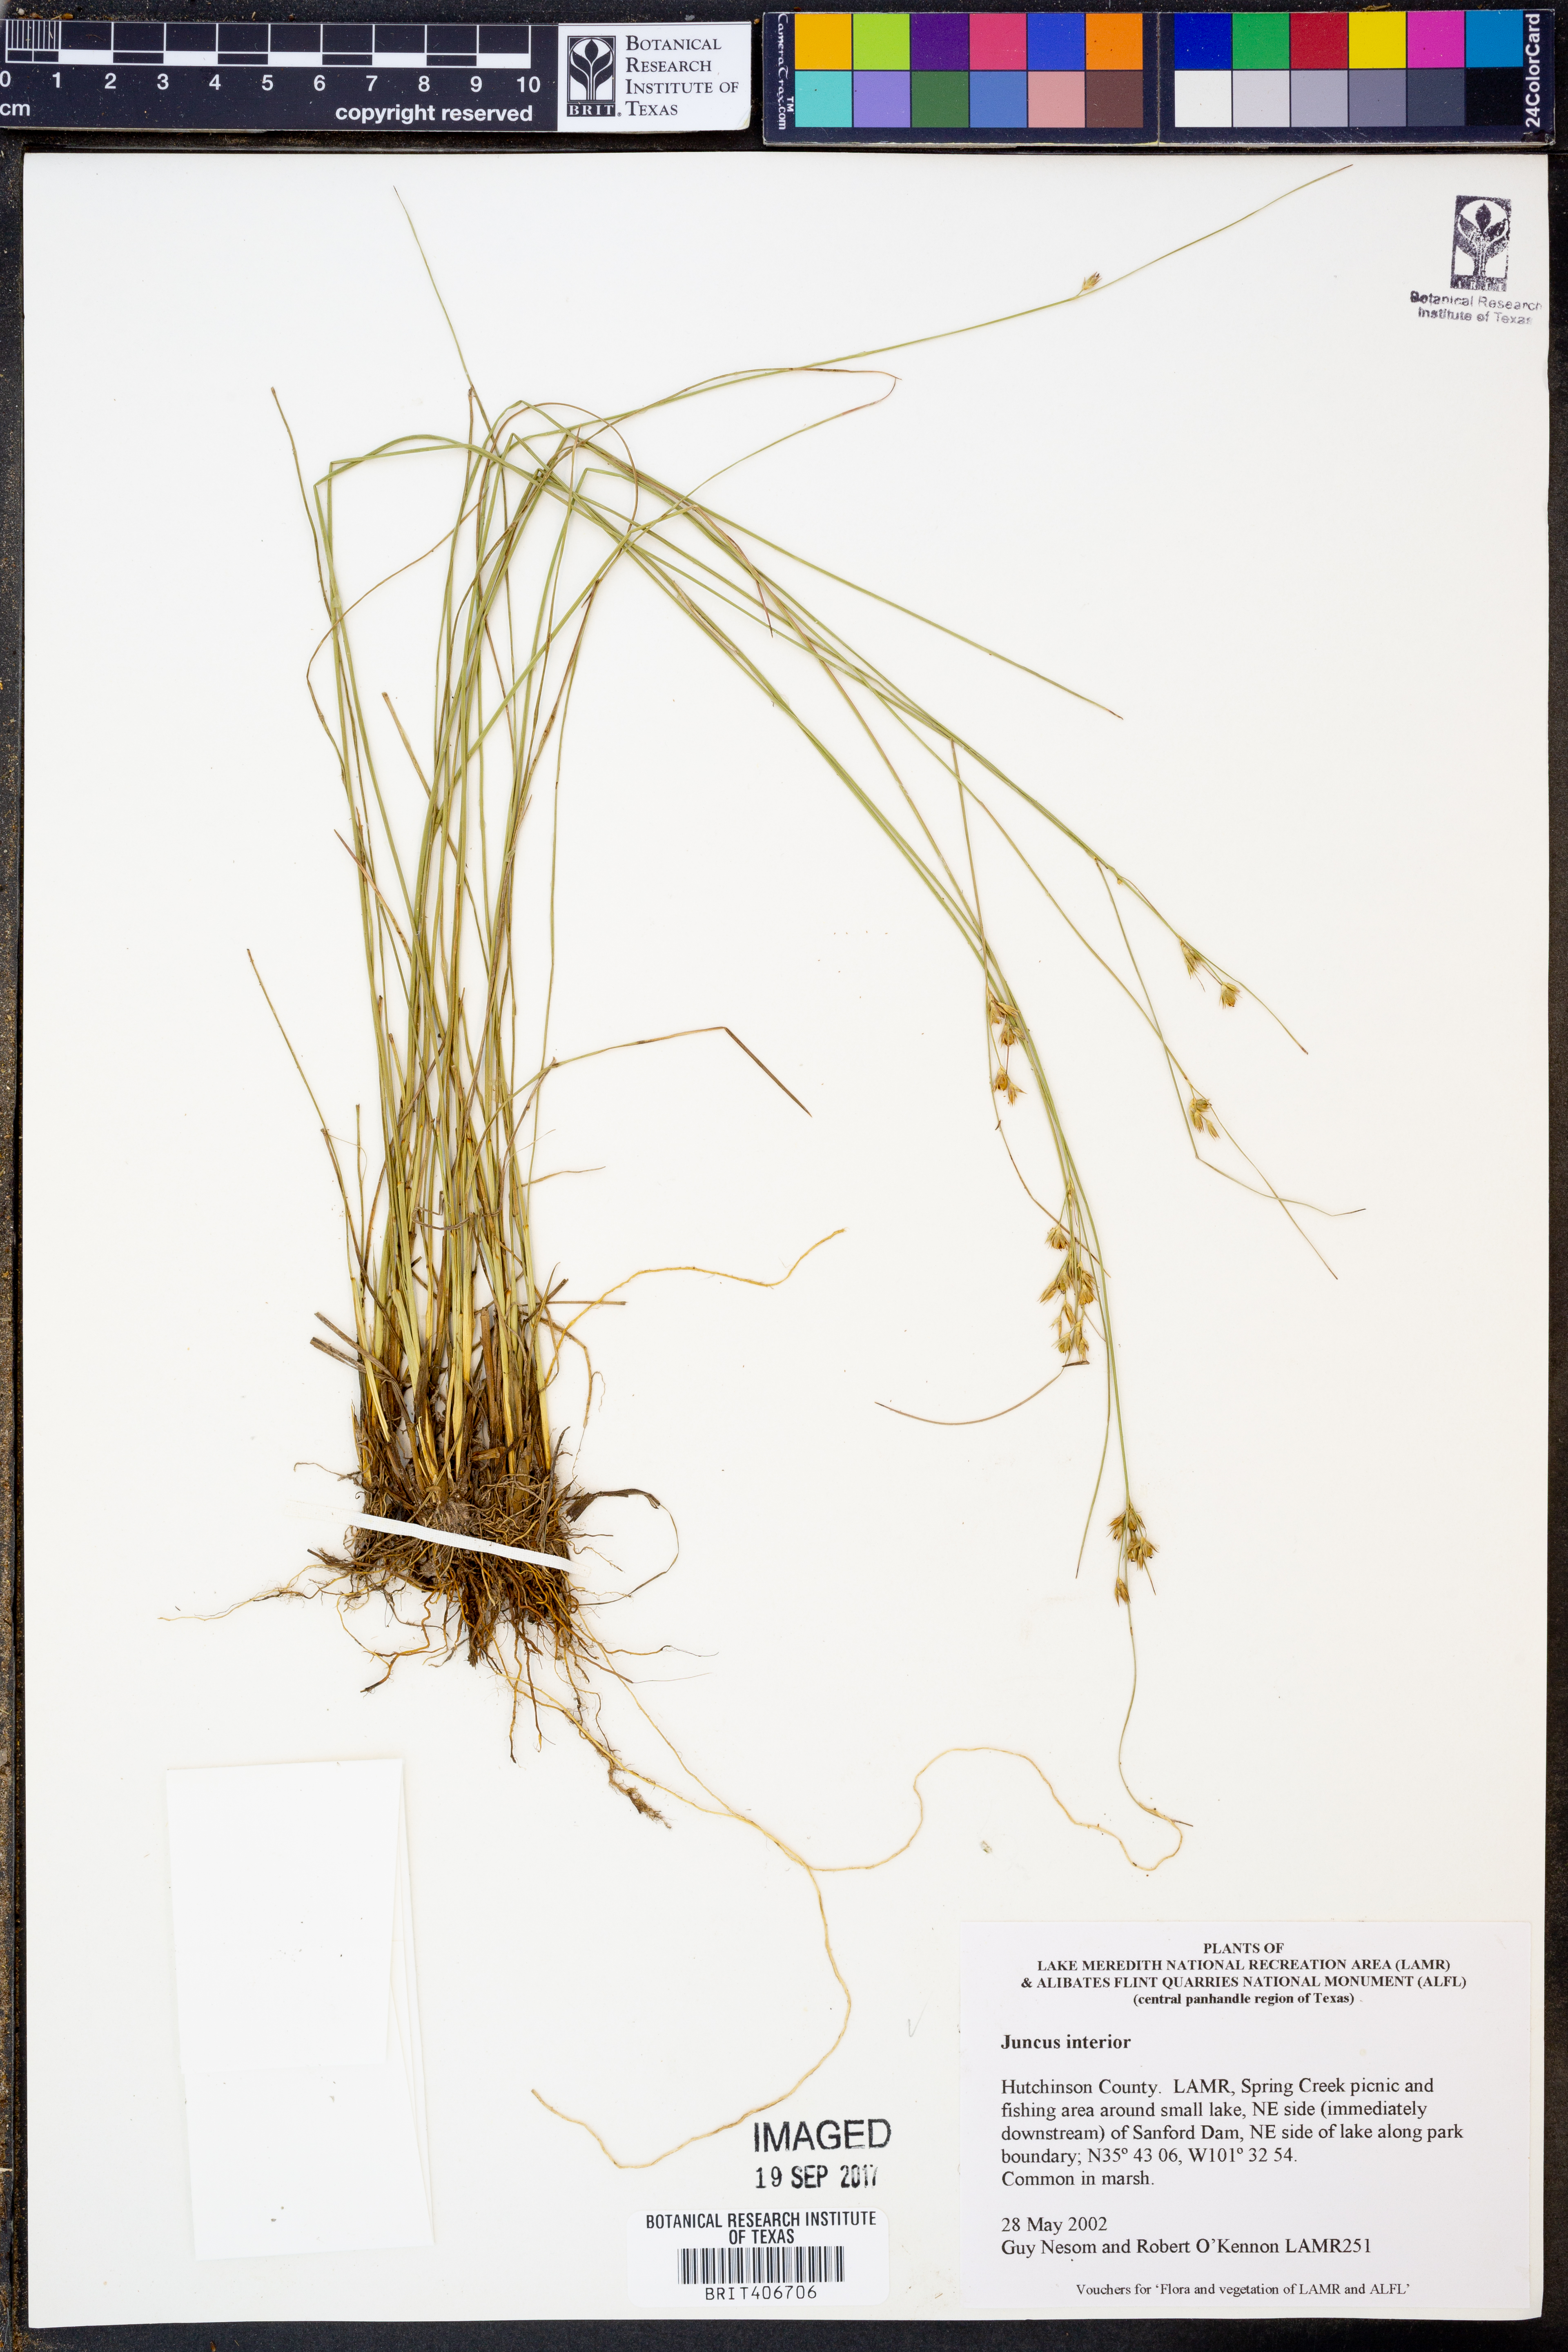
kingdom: Plantae
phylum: Tracheophyta
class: Liliopsida
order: Poales
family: Juncaceae
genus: Juncus
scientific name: Juncus interior
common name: Interior rush
